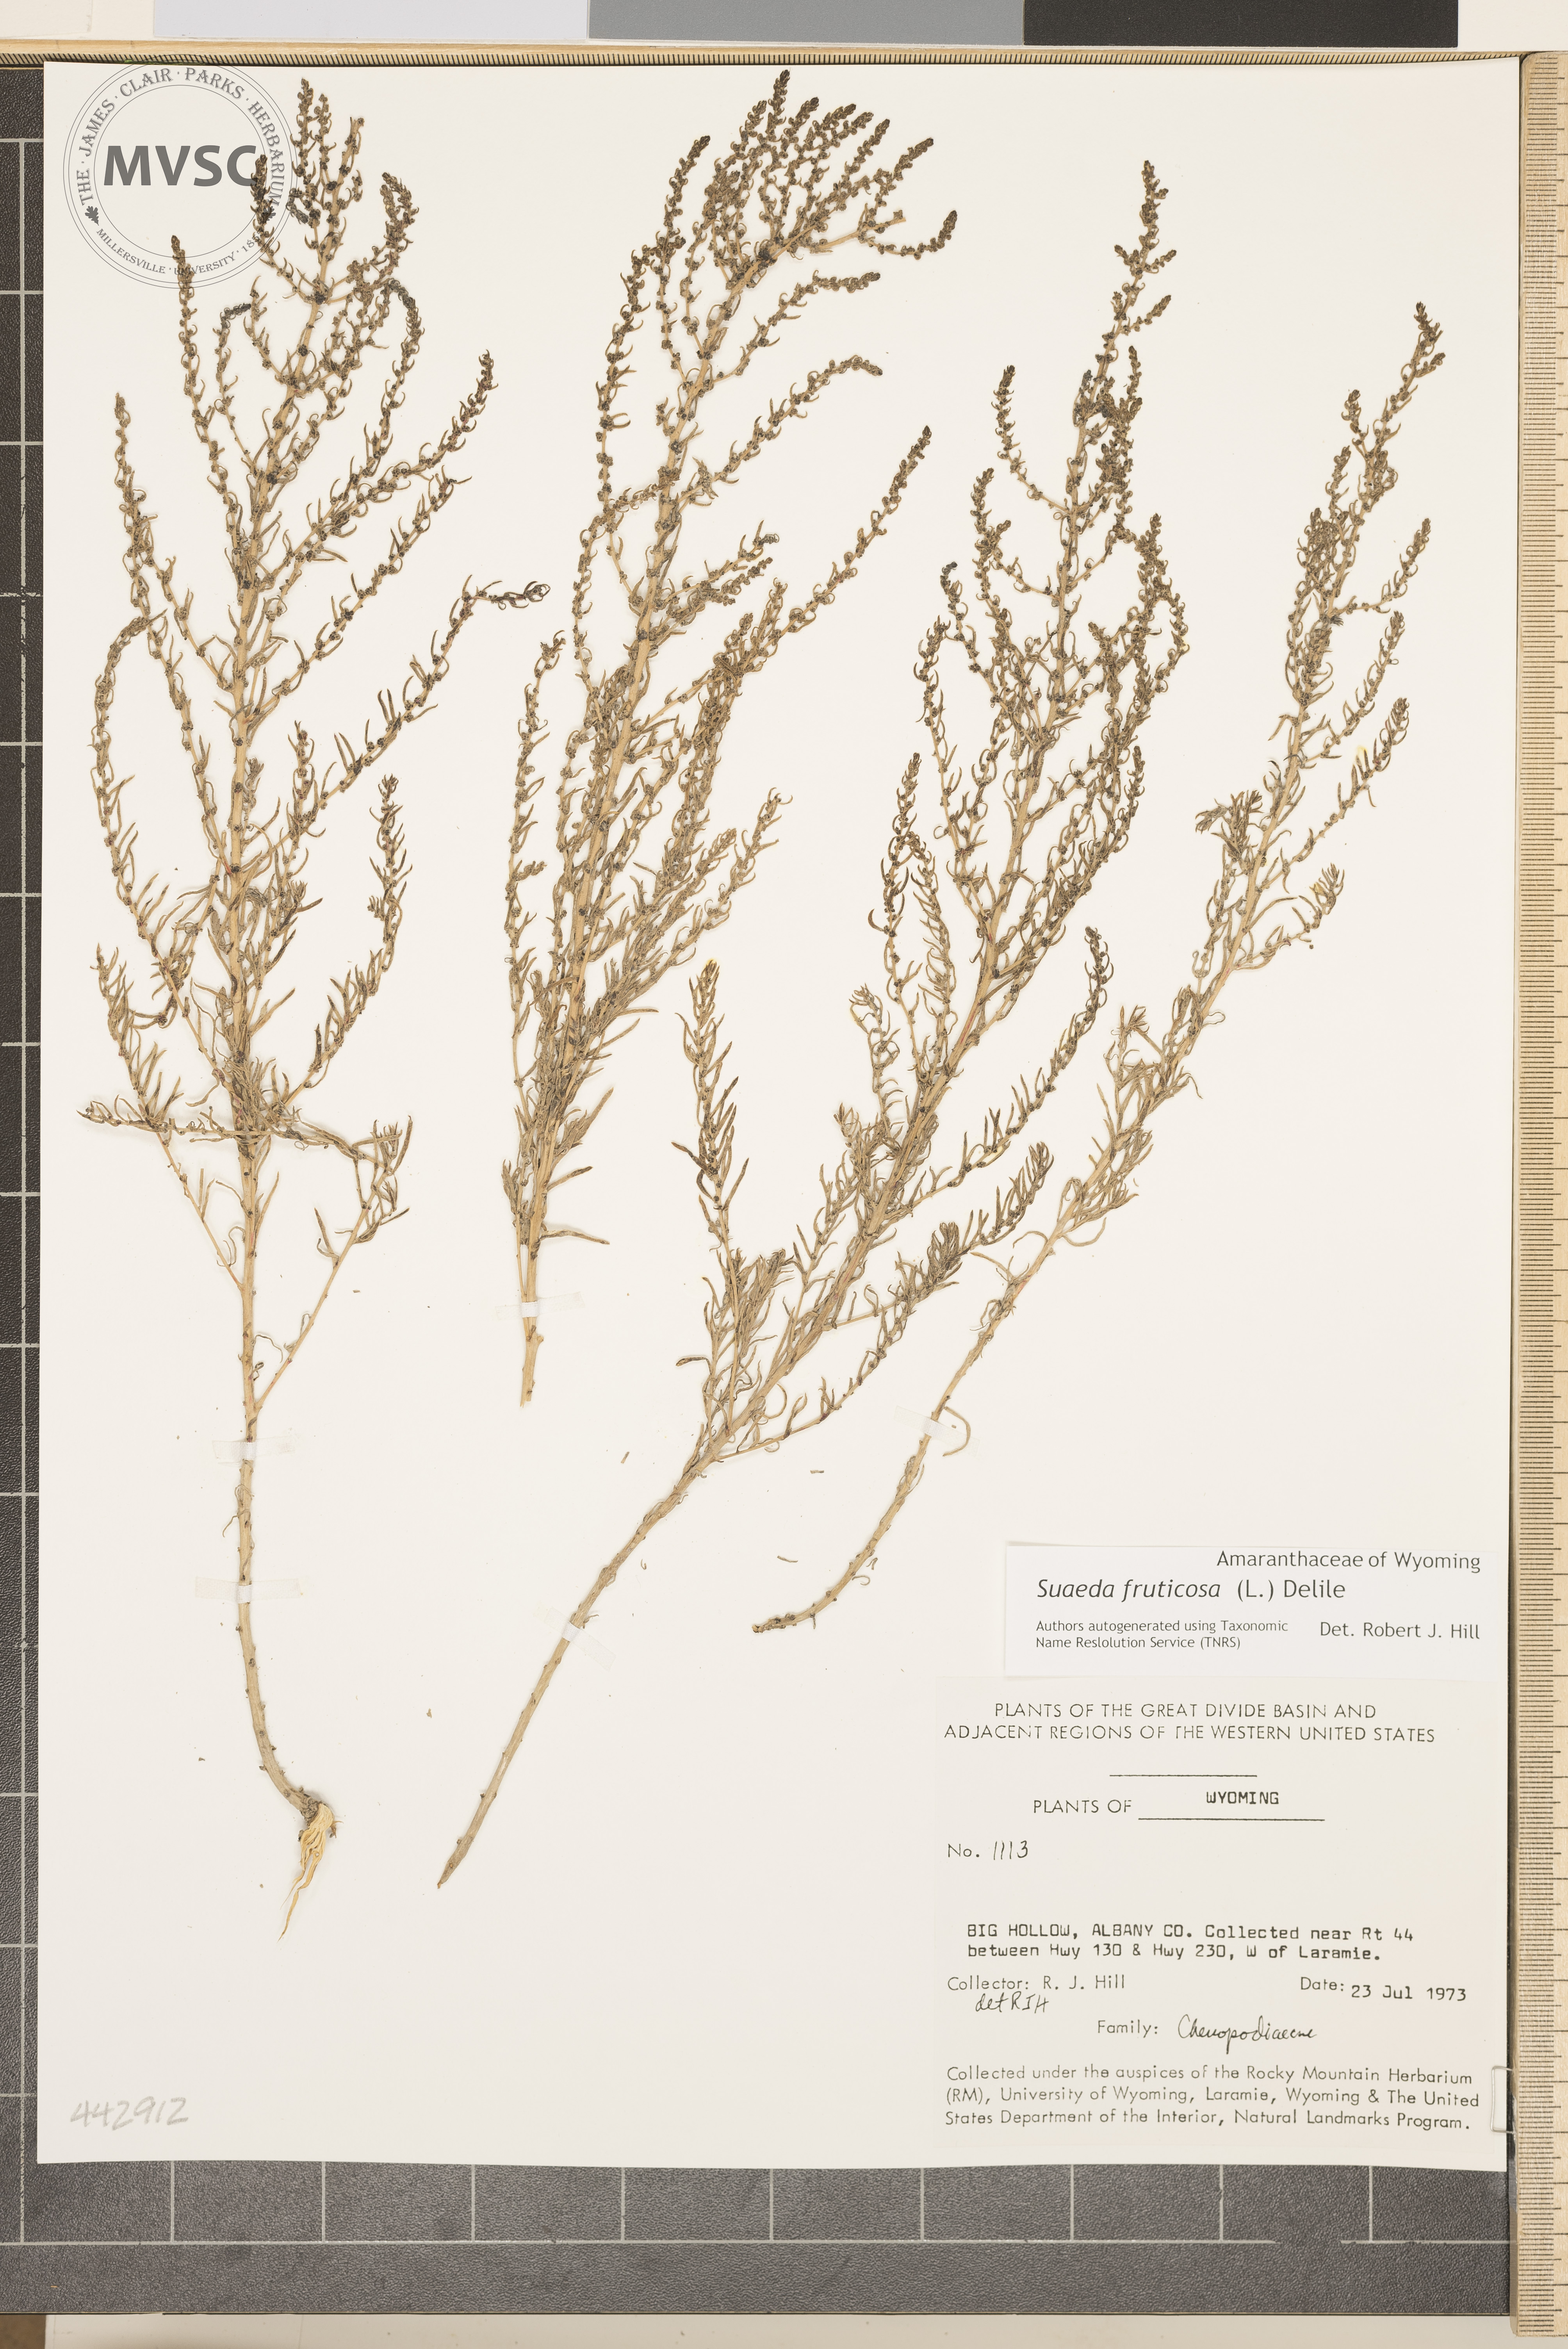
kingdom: Plantae
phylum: Tracheophyta
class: Magnoliopsida
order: Caryophyllales
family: Amaranthaceae
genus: Suaeda
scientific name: Suaeda vera
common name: Shrubby sea-blite
